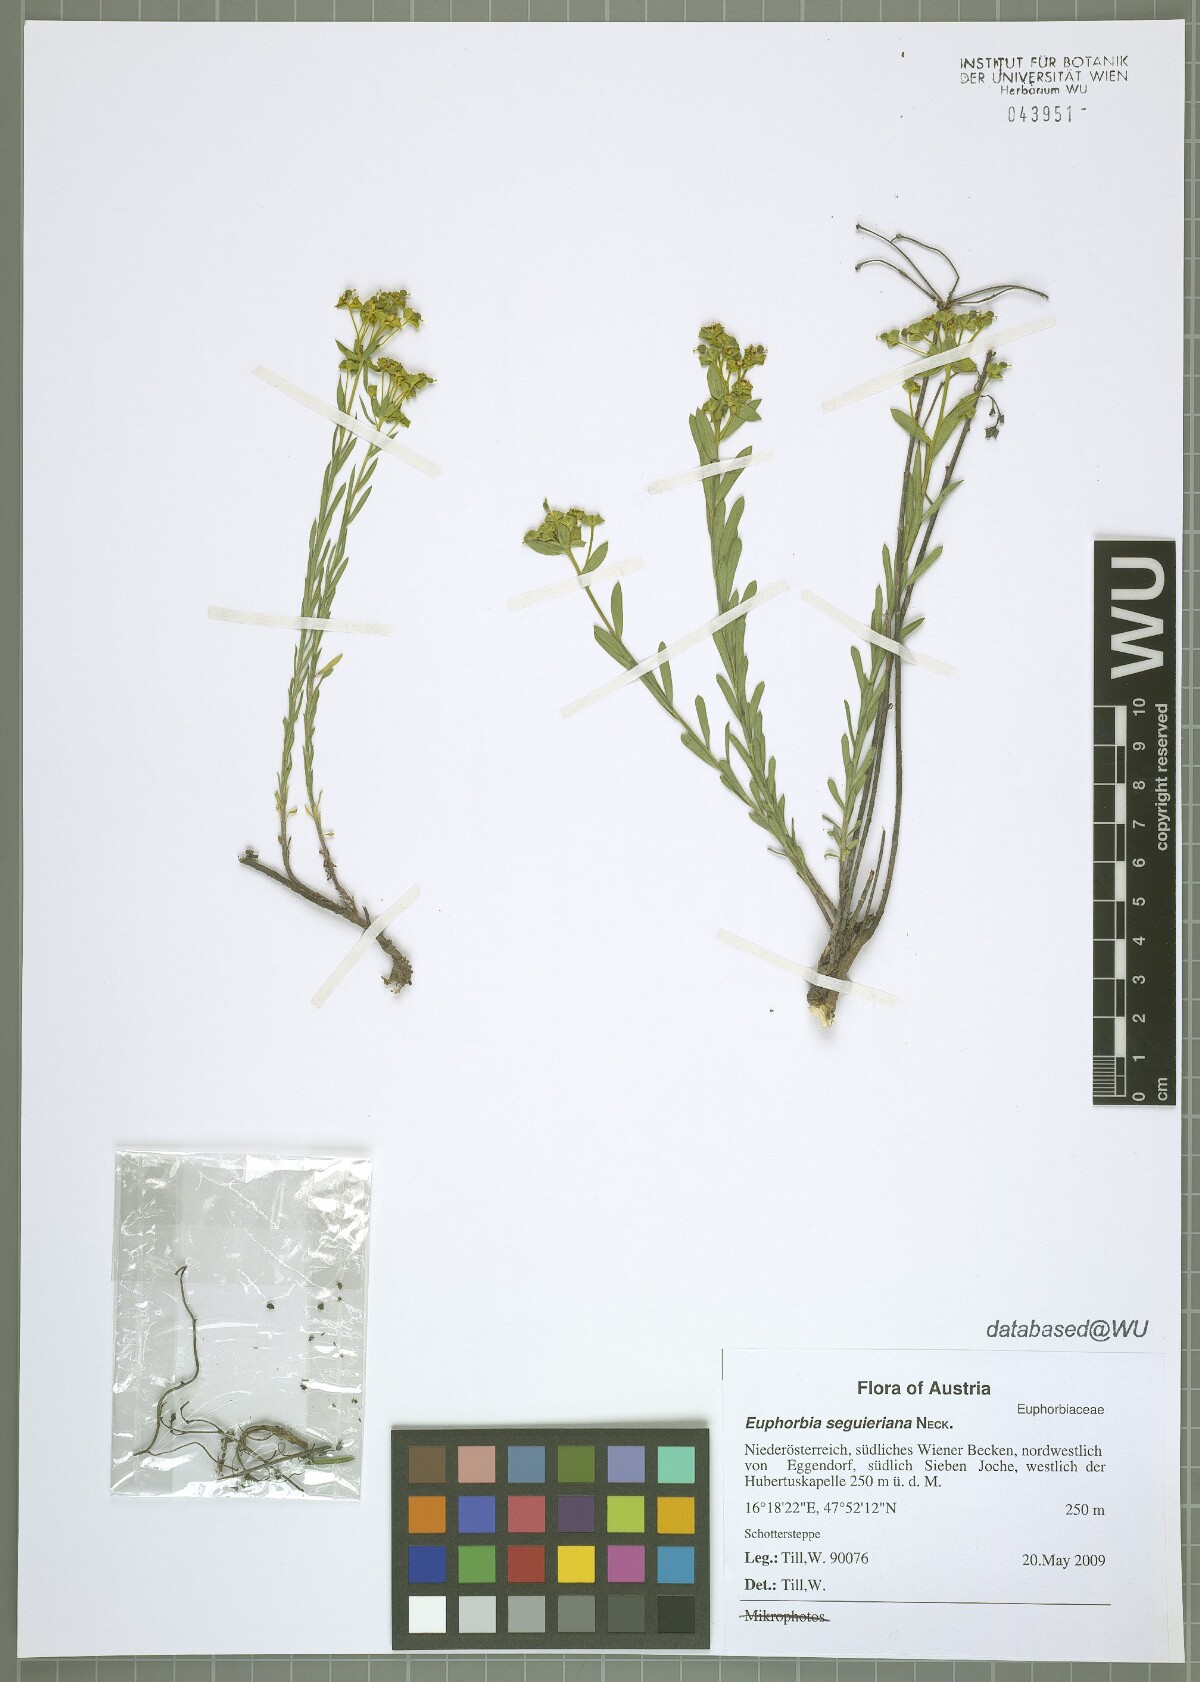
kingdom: Plantae
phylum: Tracheophyta
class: Magnoliopsida
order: Malpighiales
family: Euphorbiaceae
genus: Euphorbia
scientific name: Euphorbia seguieriana
